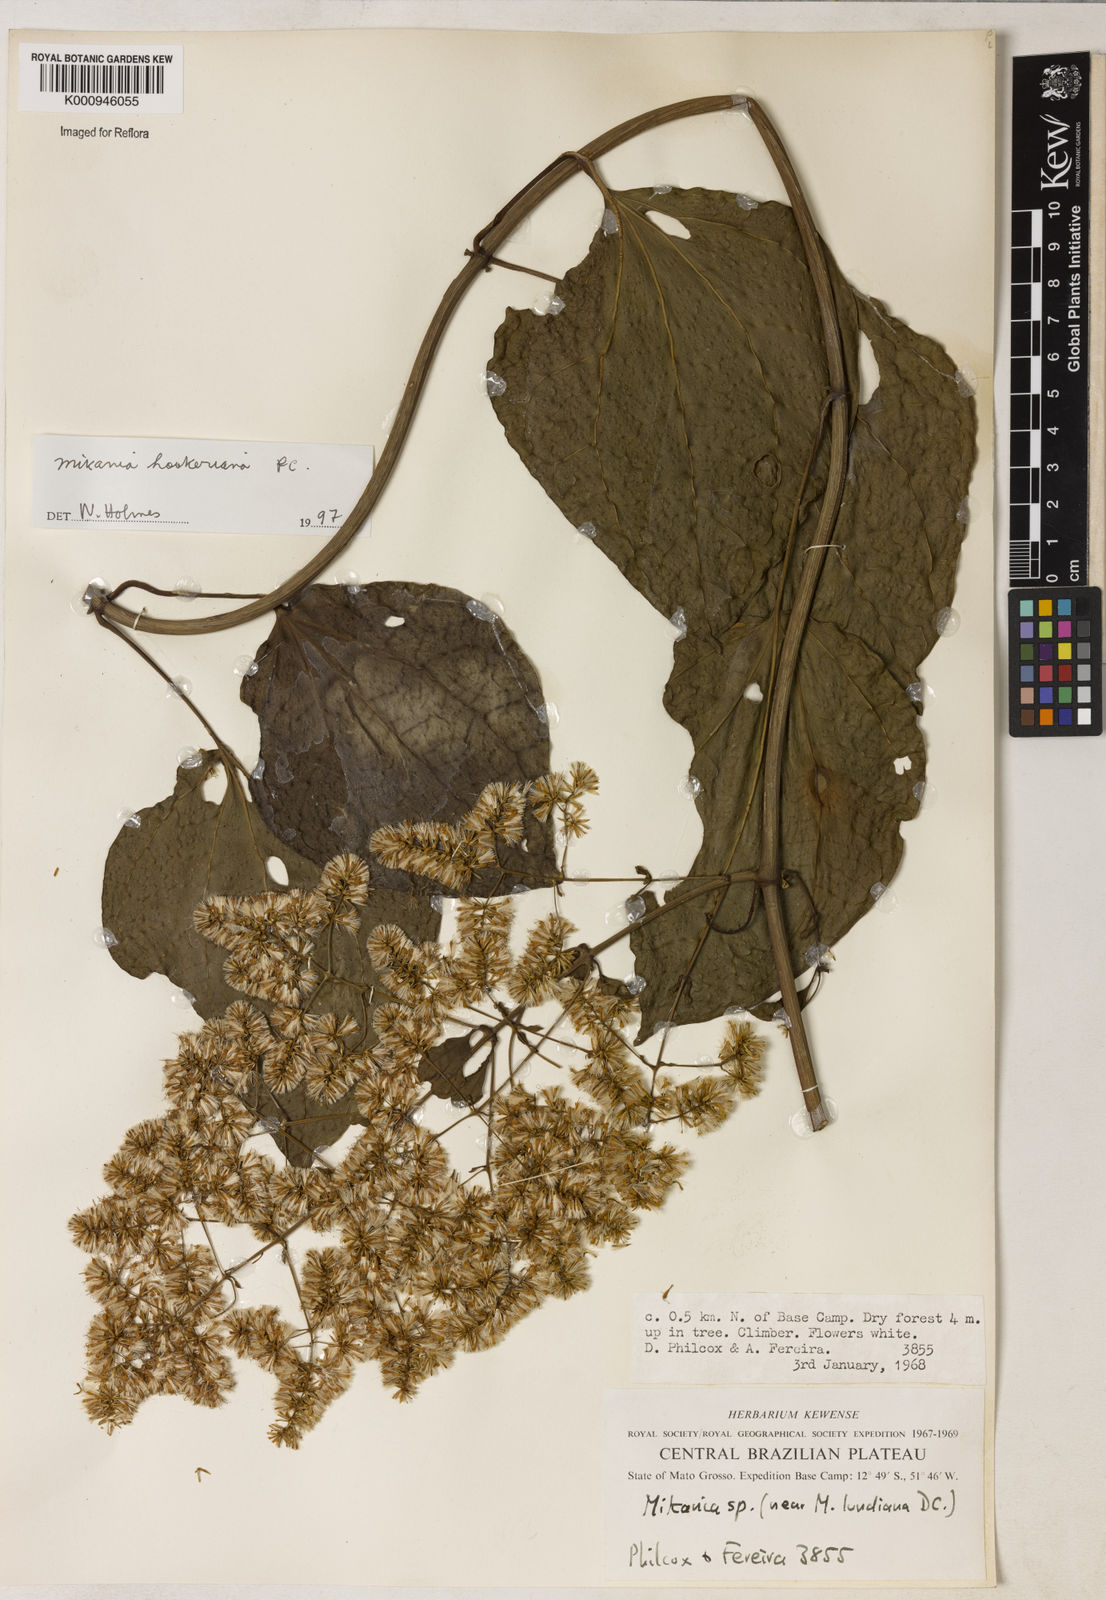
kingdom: Plantae
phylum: Tracheophyta
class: Magnoliopsida
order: Asterales
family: Asteraceae
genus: Mikania
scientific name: Mikania lundiana
